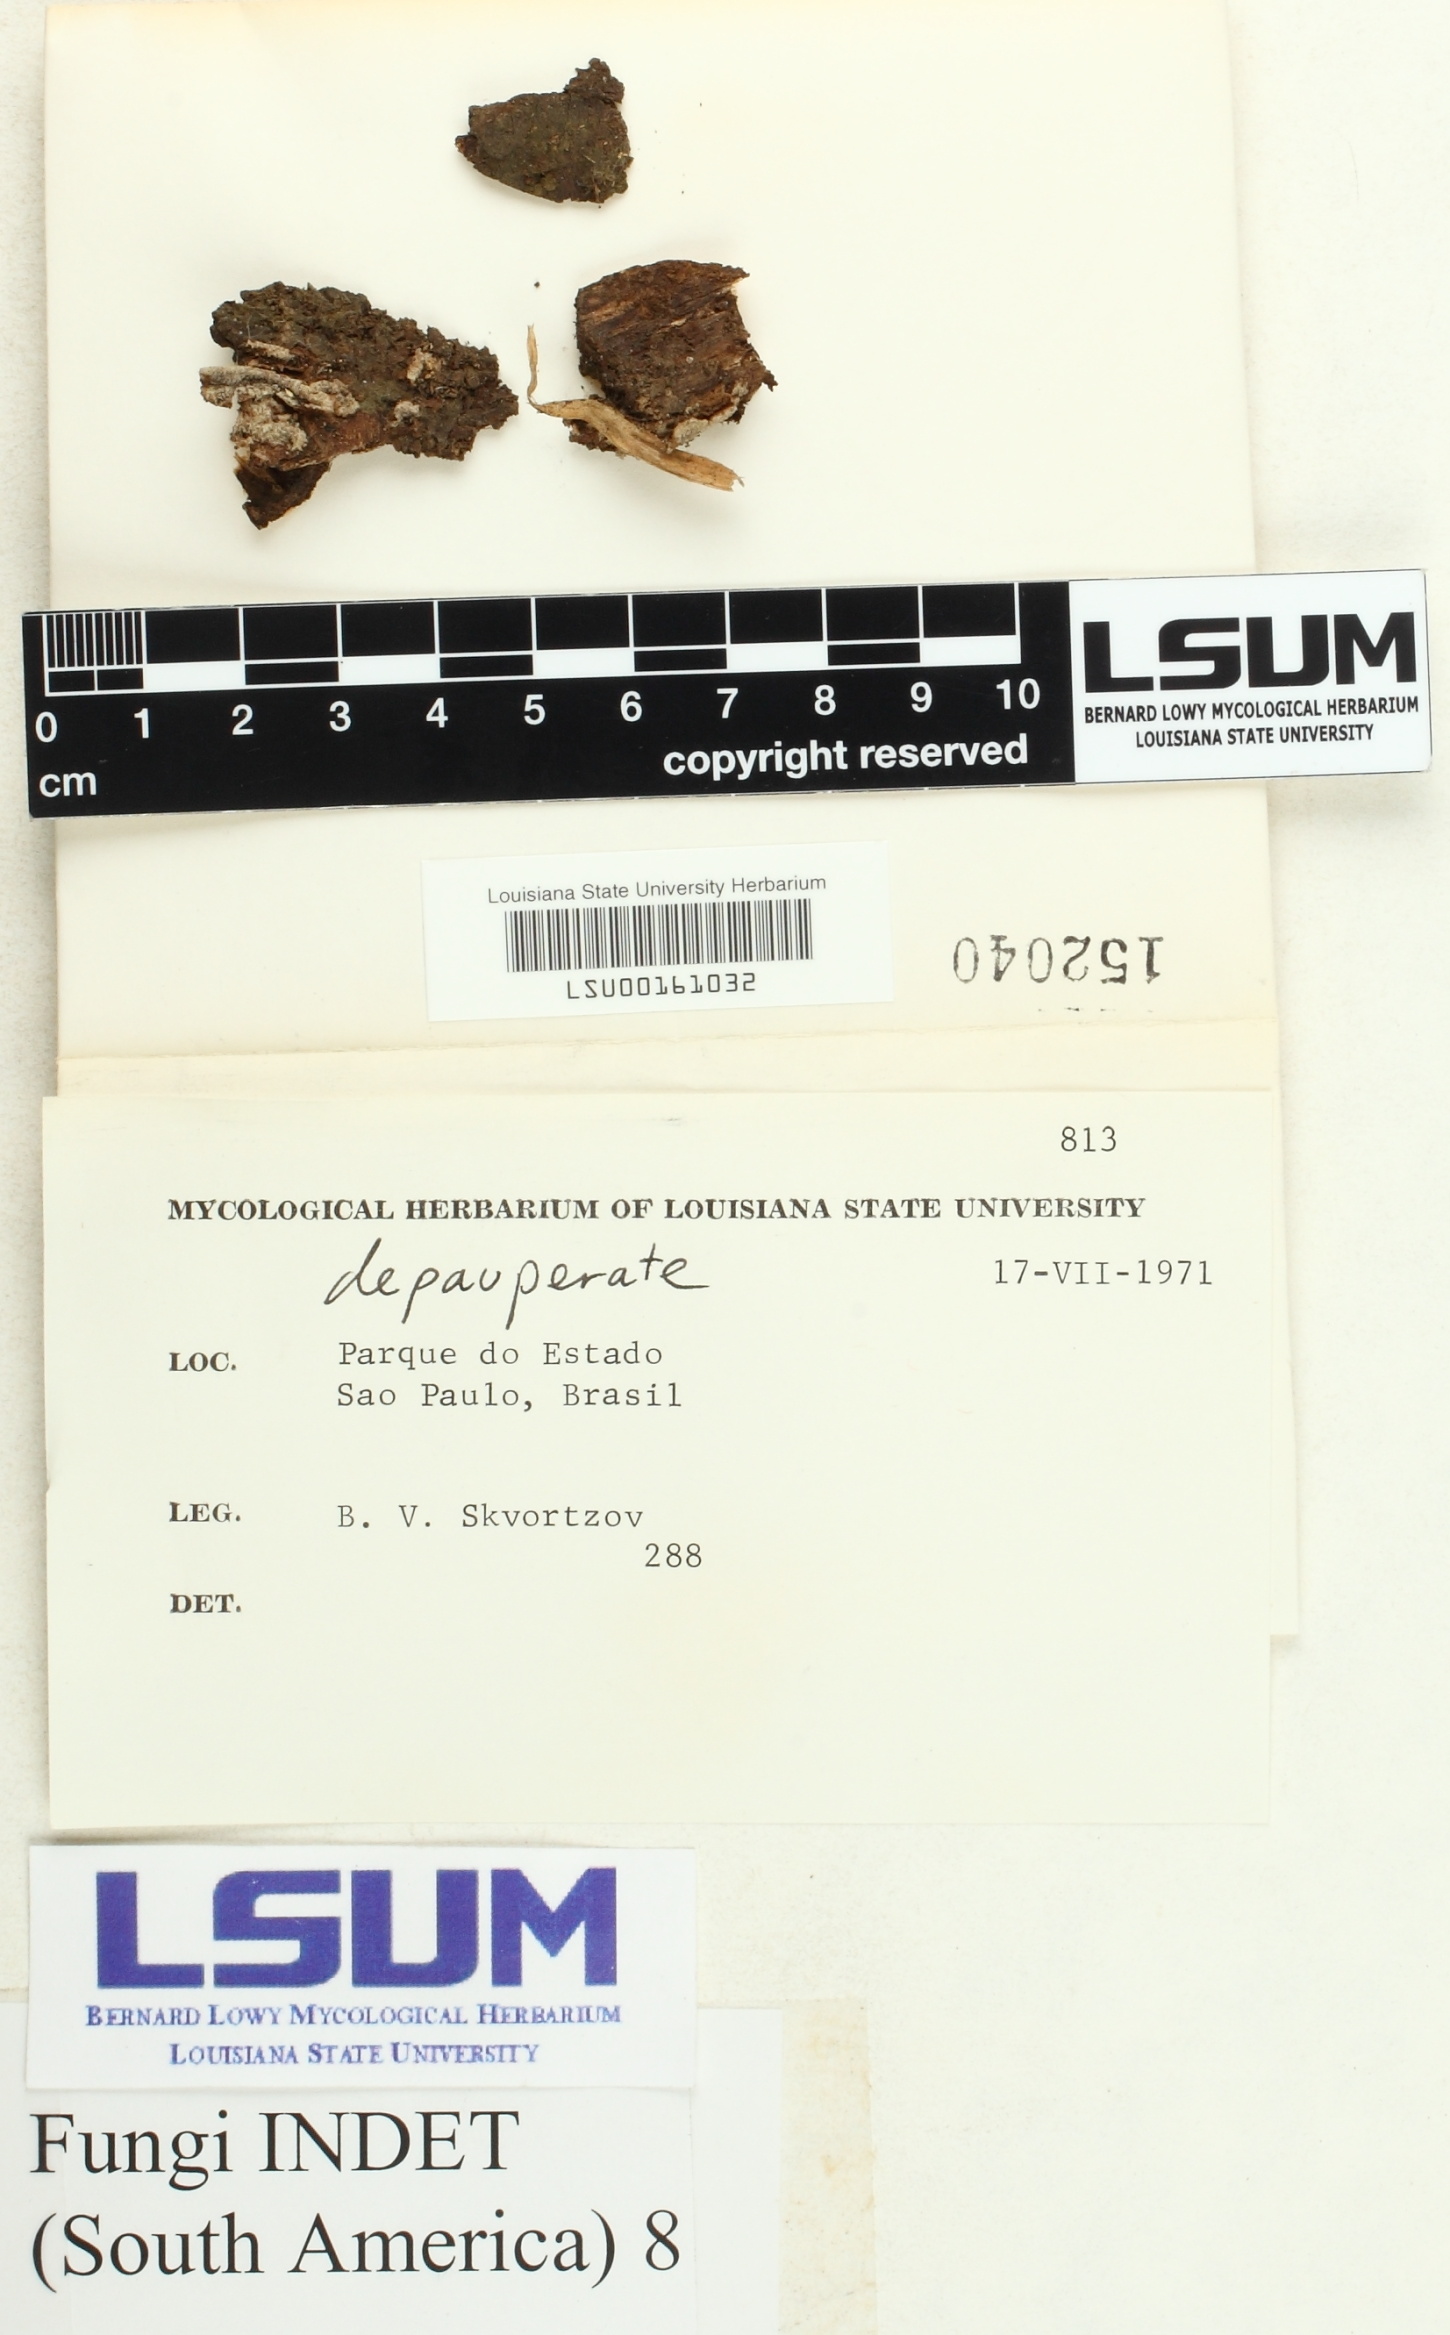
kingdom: Fungi
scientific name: Fungi
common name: Fungi
